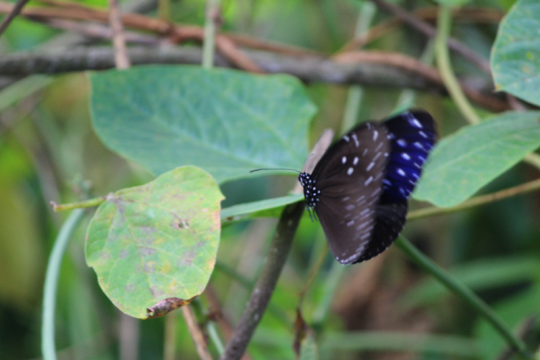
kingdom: Animalia
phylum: Arthropoda
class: Insecta
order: Lepidoptera
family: Nymphalidae
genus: Euploea
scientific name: Euploea midamus
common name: Blue-spotted Crow Butterfly
